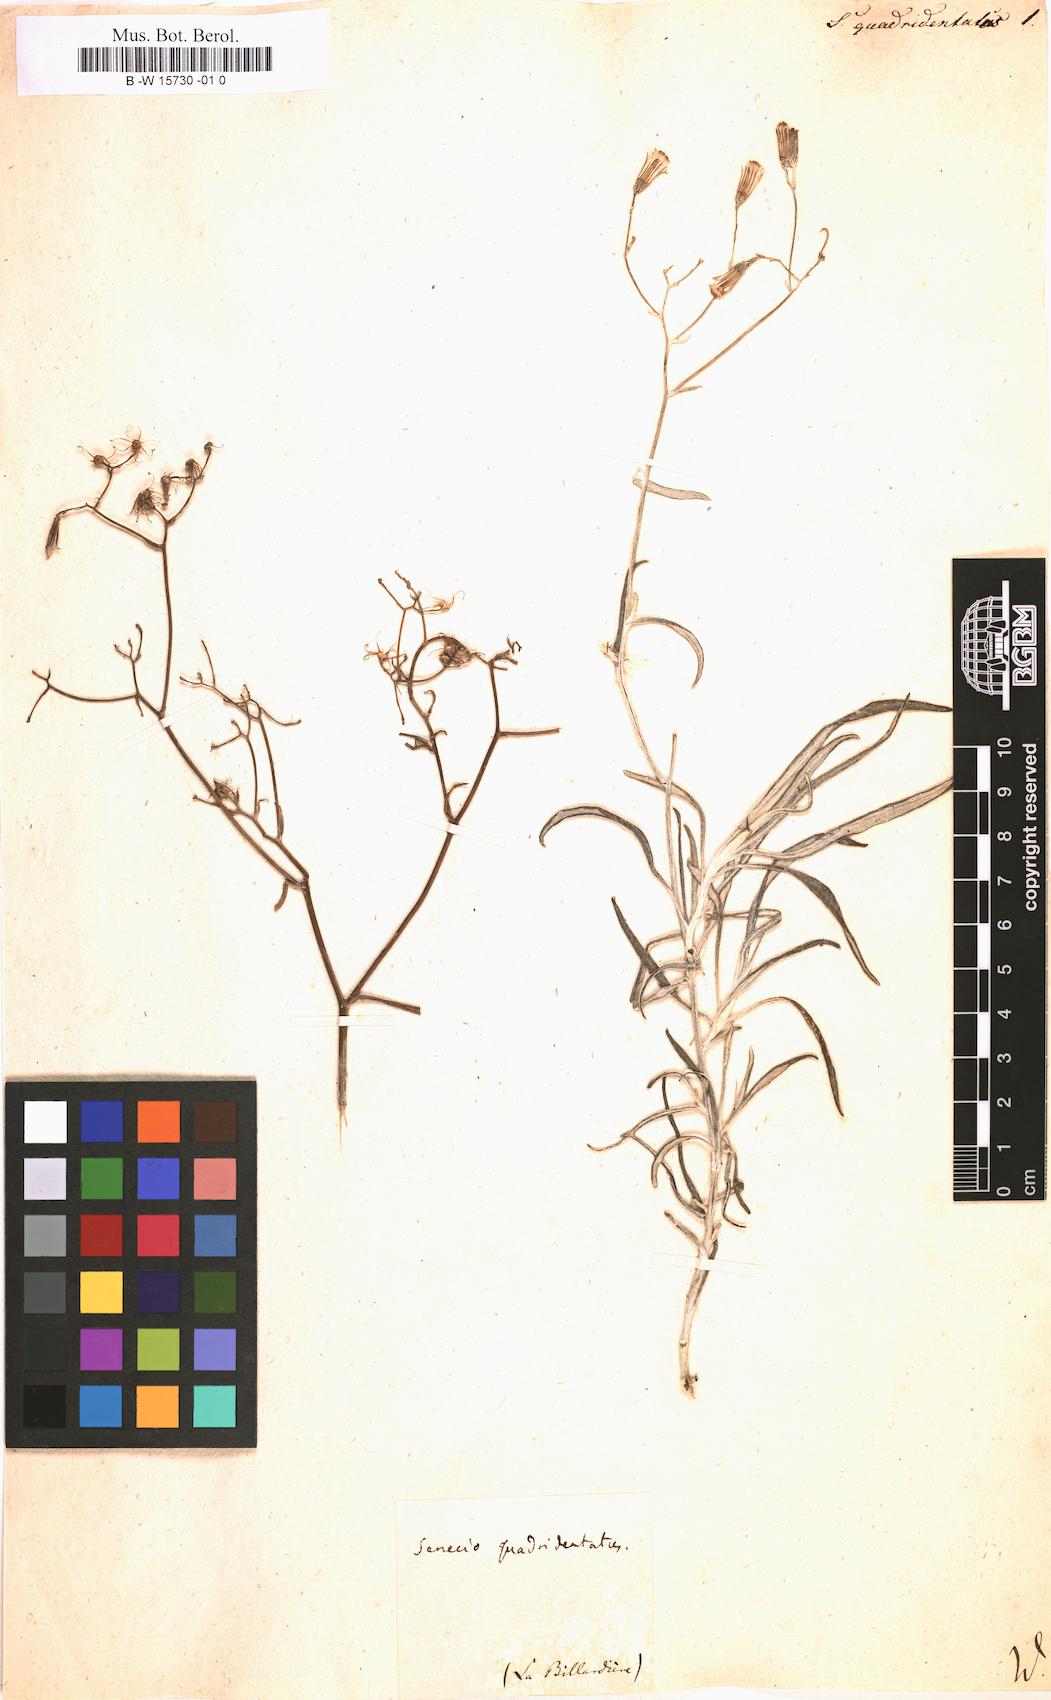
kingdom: Plantae
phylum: Tracheophyta
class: Magnoliopsida
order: Asterales
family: Asteraceae
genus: Senecio
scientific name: Senecio quadridentatus
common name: Cotton fireweed
